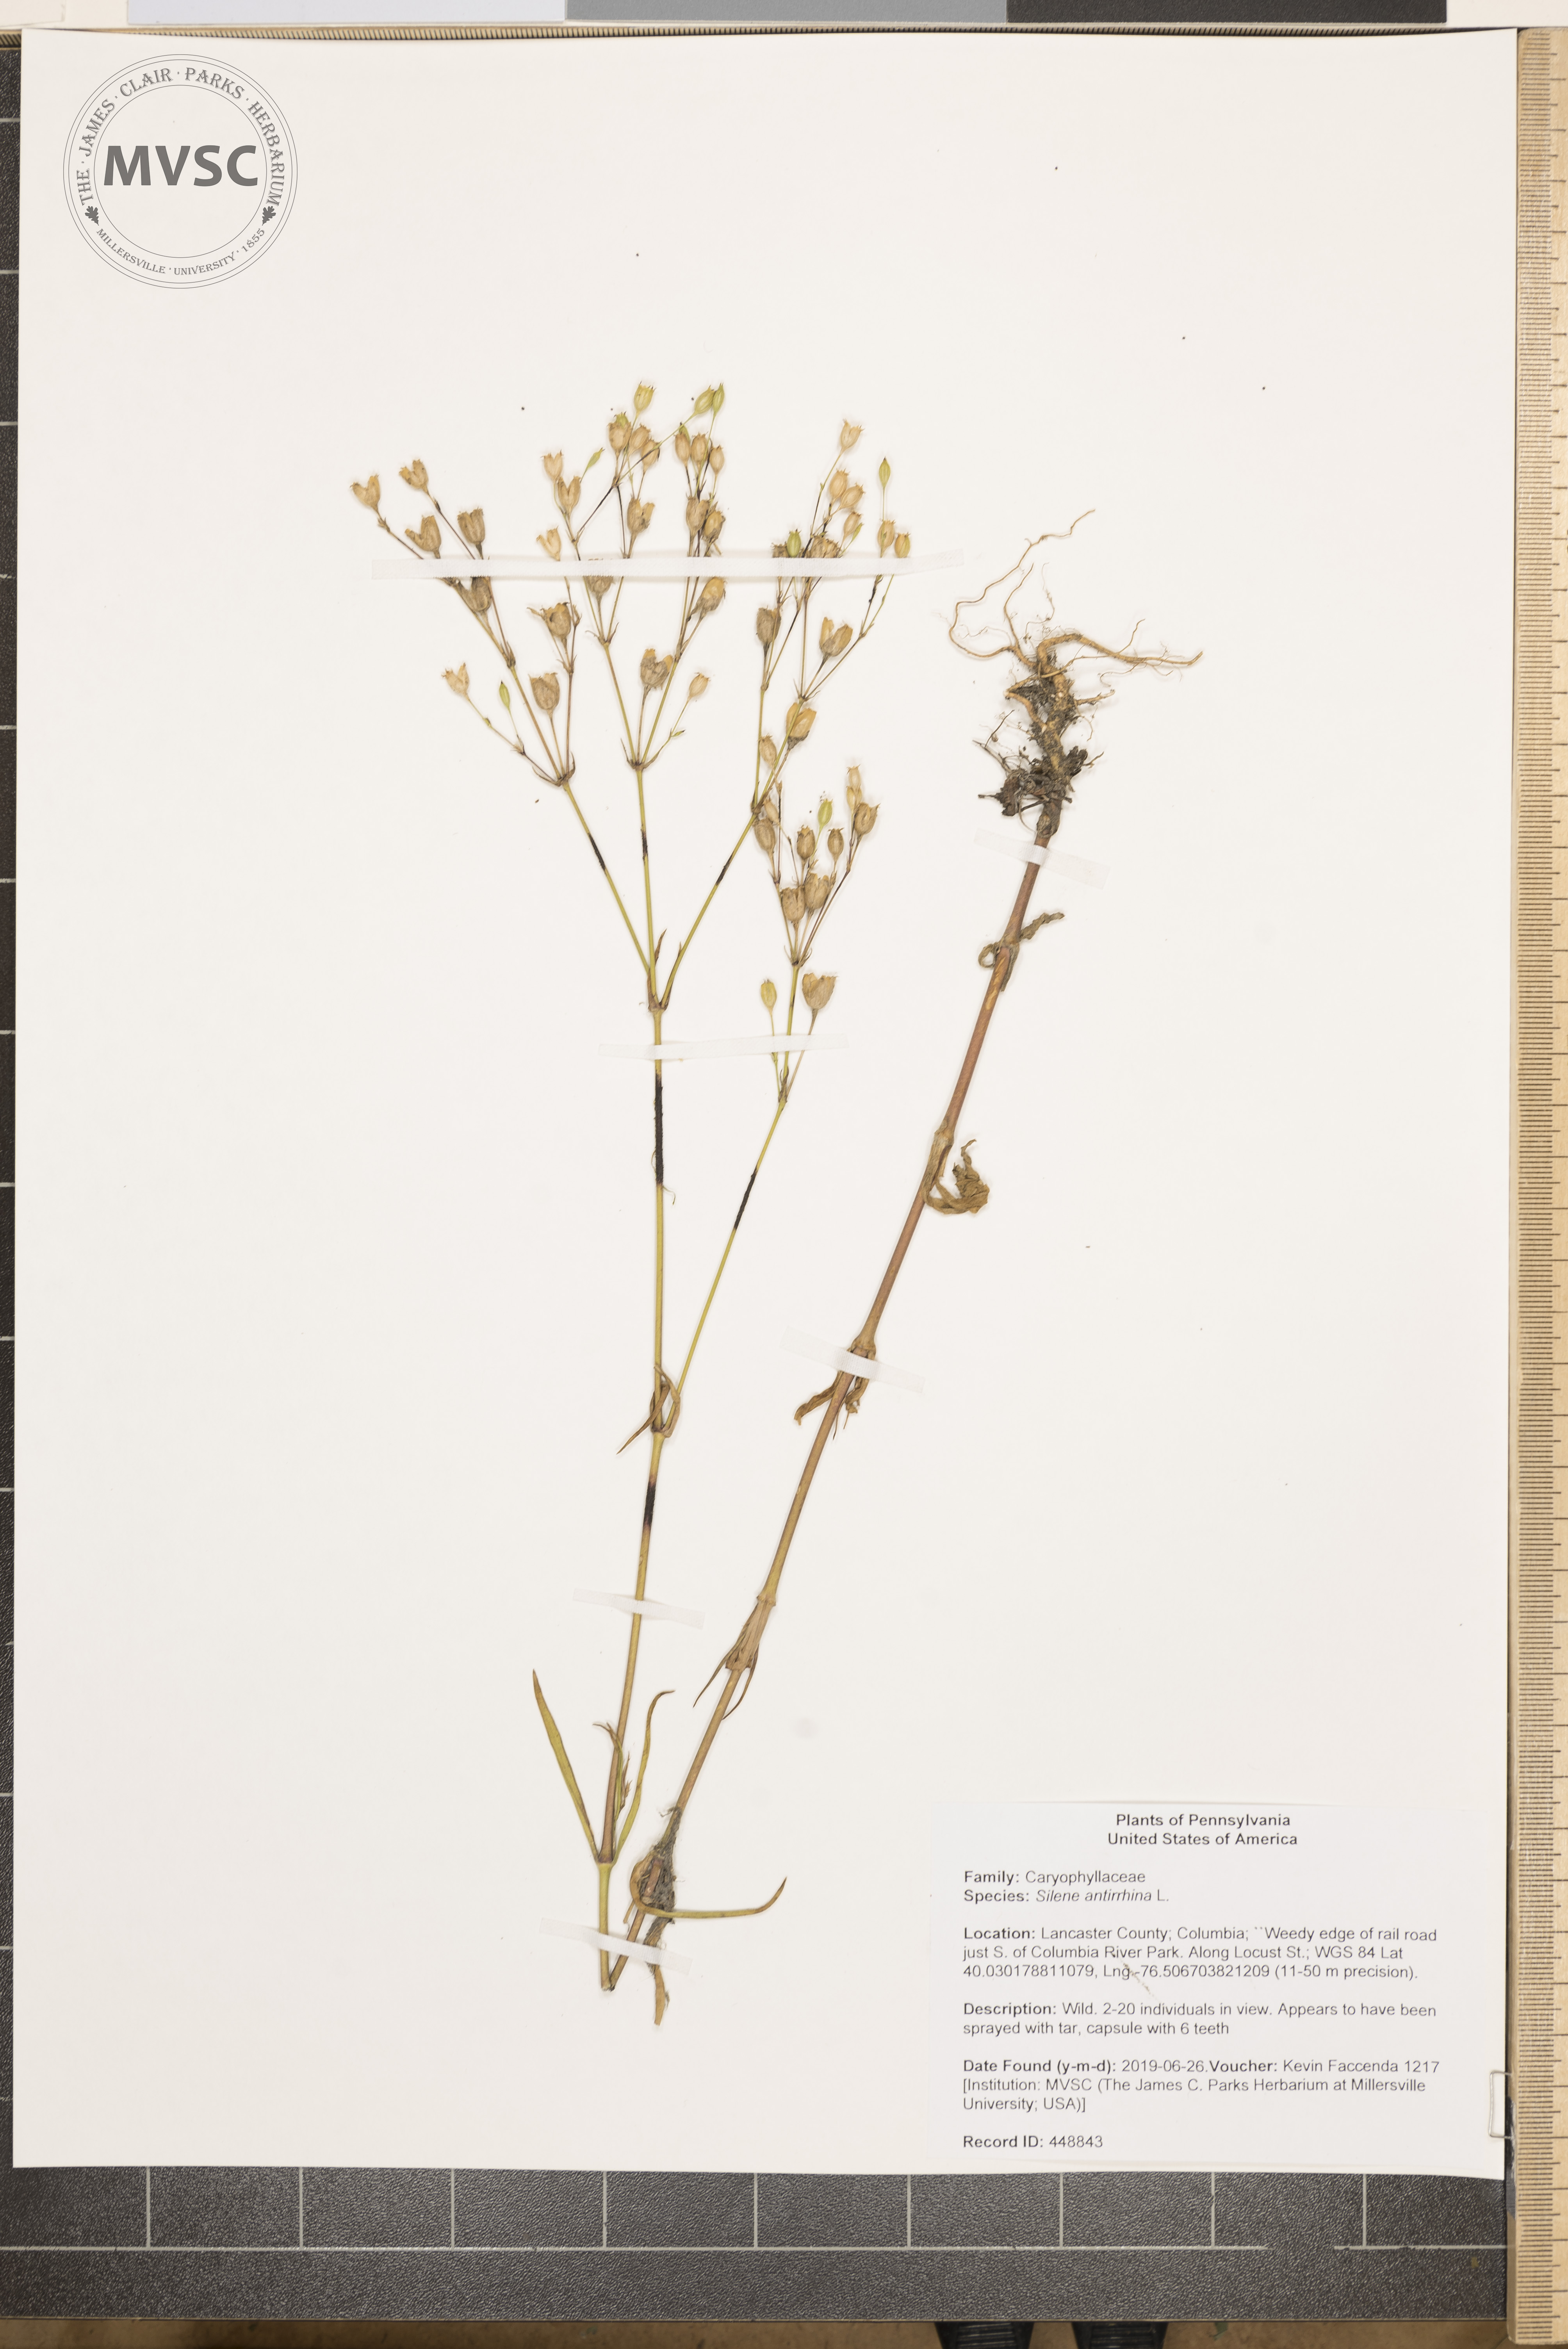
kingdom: Plantae
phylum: Tracheophyta
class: Magnoliopsida
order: Caryophyllales
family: Caryophyllaceae
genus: Silene
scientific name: Silene antirrhina
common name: Sleepy catchfly
